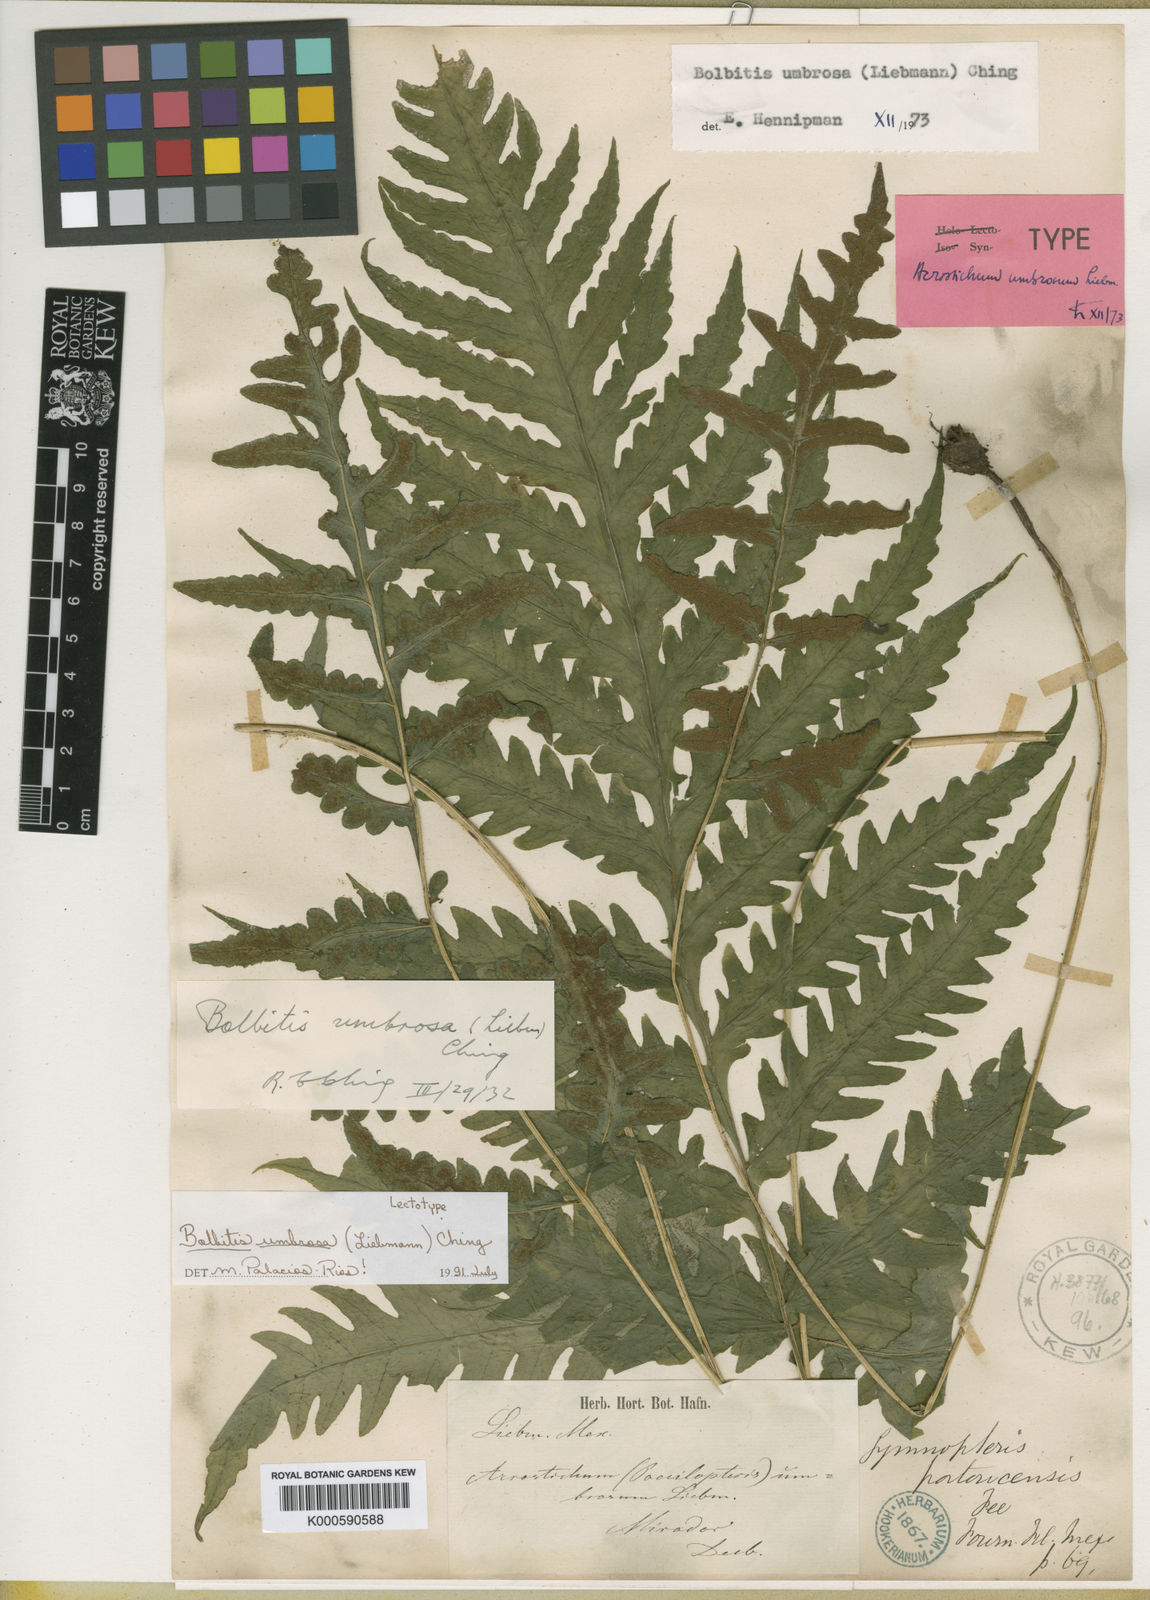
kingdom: Plantae
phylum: Tracheophyta
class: Polypodiopsida
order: Polypodiales
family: Dryopteridaceae
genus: Bolbitis
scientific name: Bolbitis umbrosa
